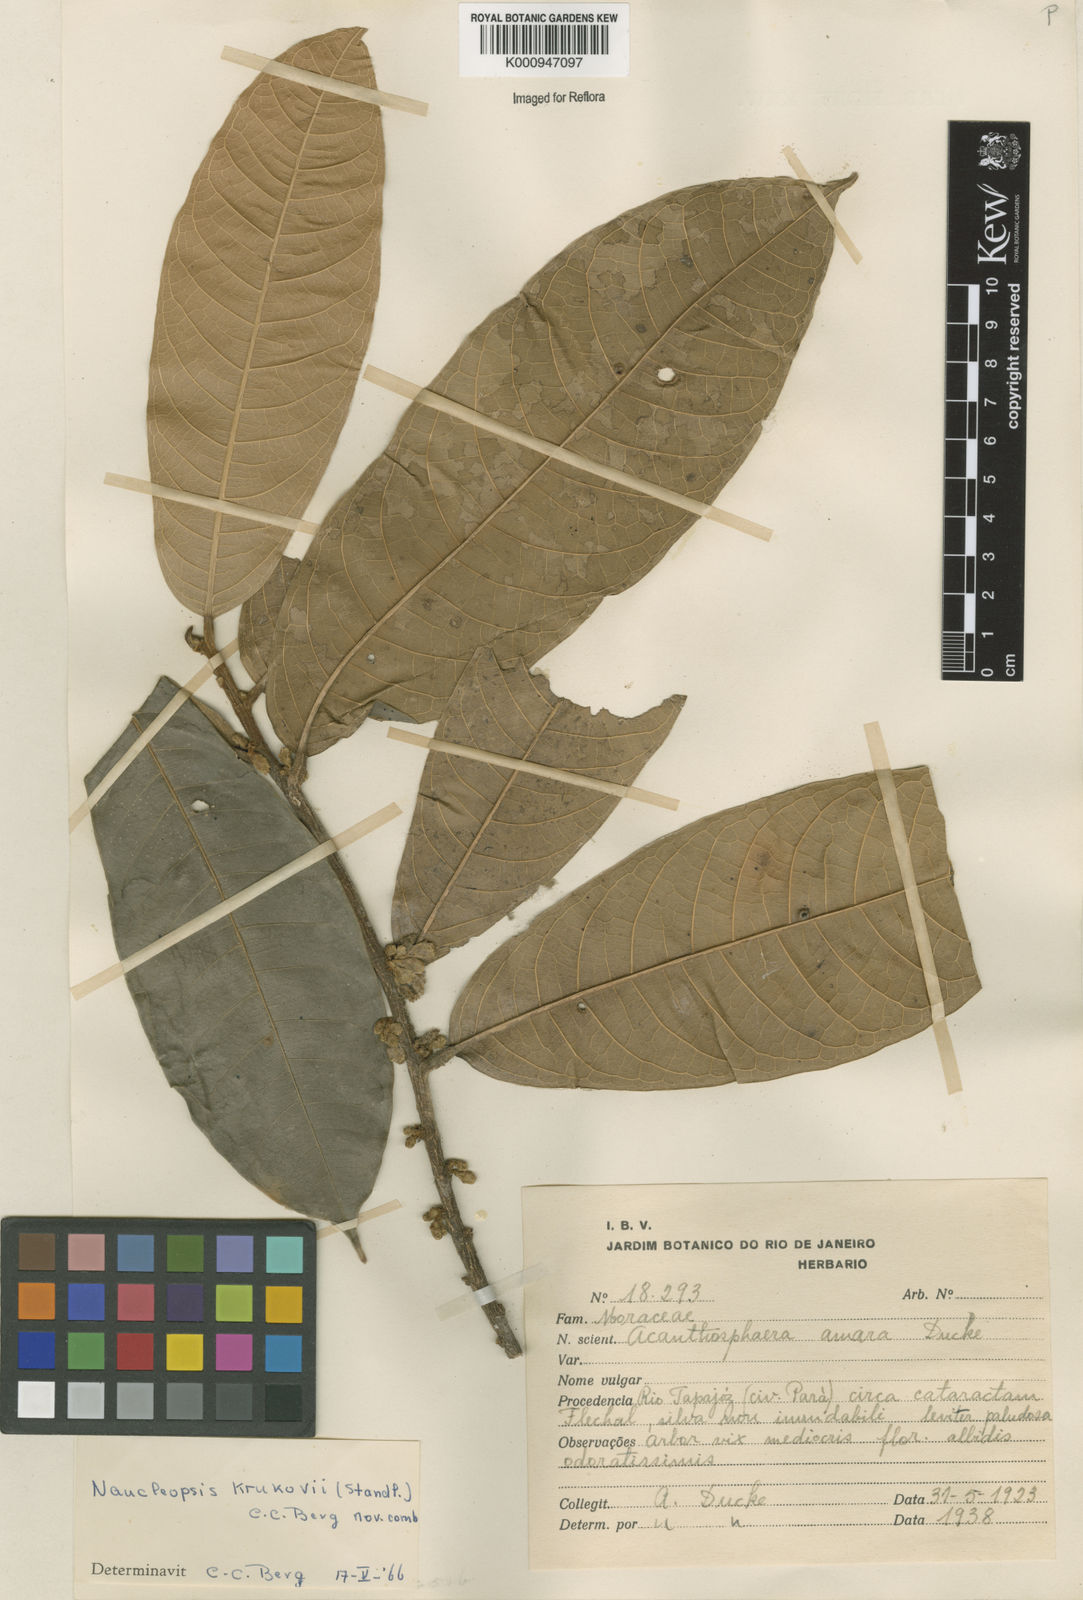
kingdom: Plantae
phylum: Tracheophyta
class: Magnoliopsida
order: Rosales
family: Moraceae
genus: Naucleopsis
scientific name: Naucleopsis krukovii
